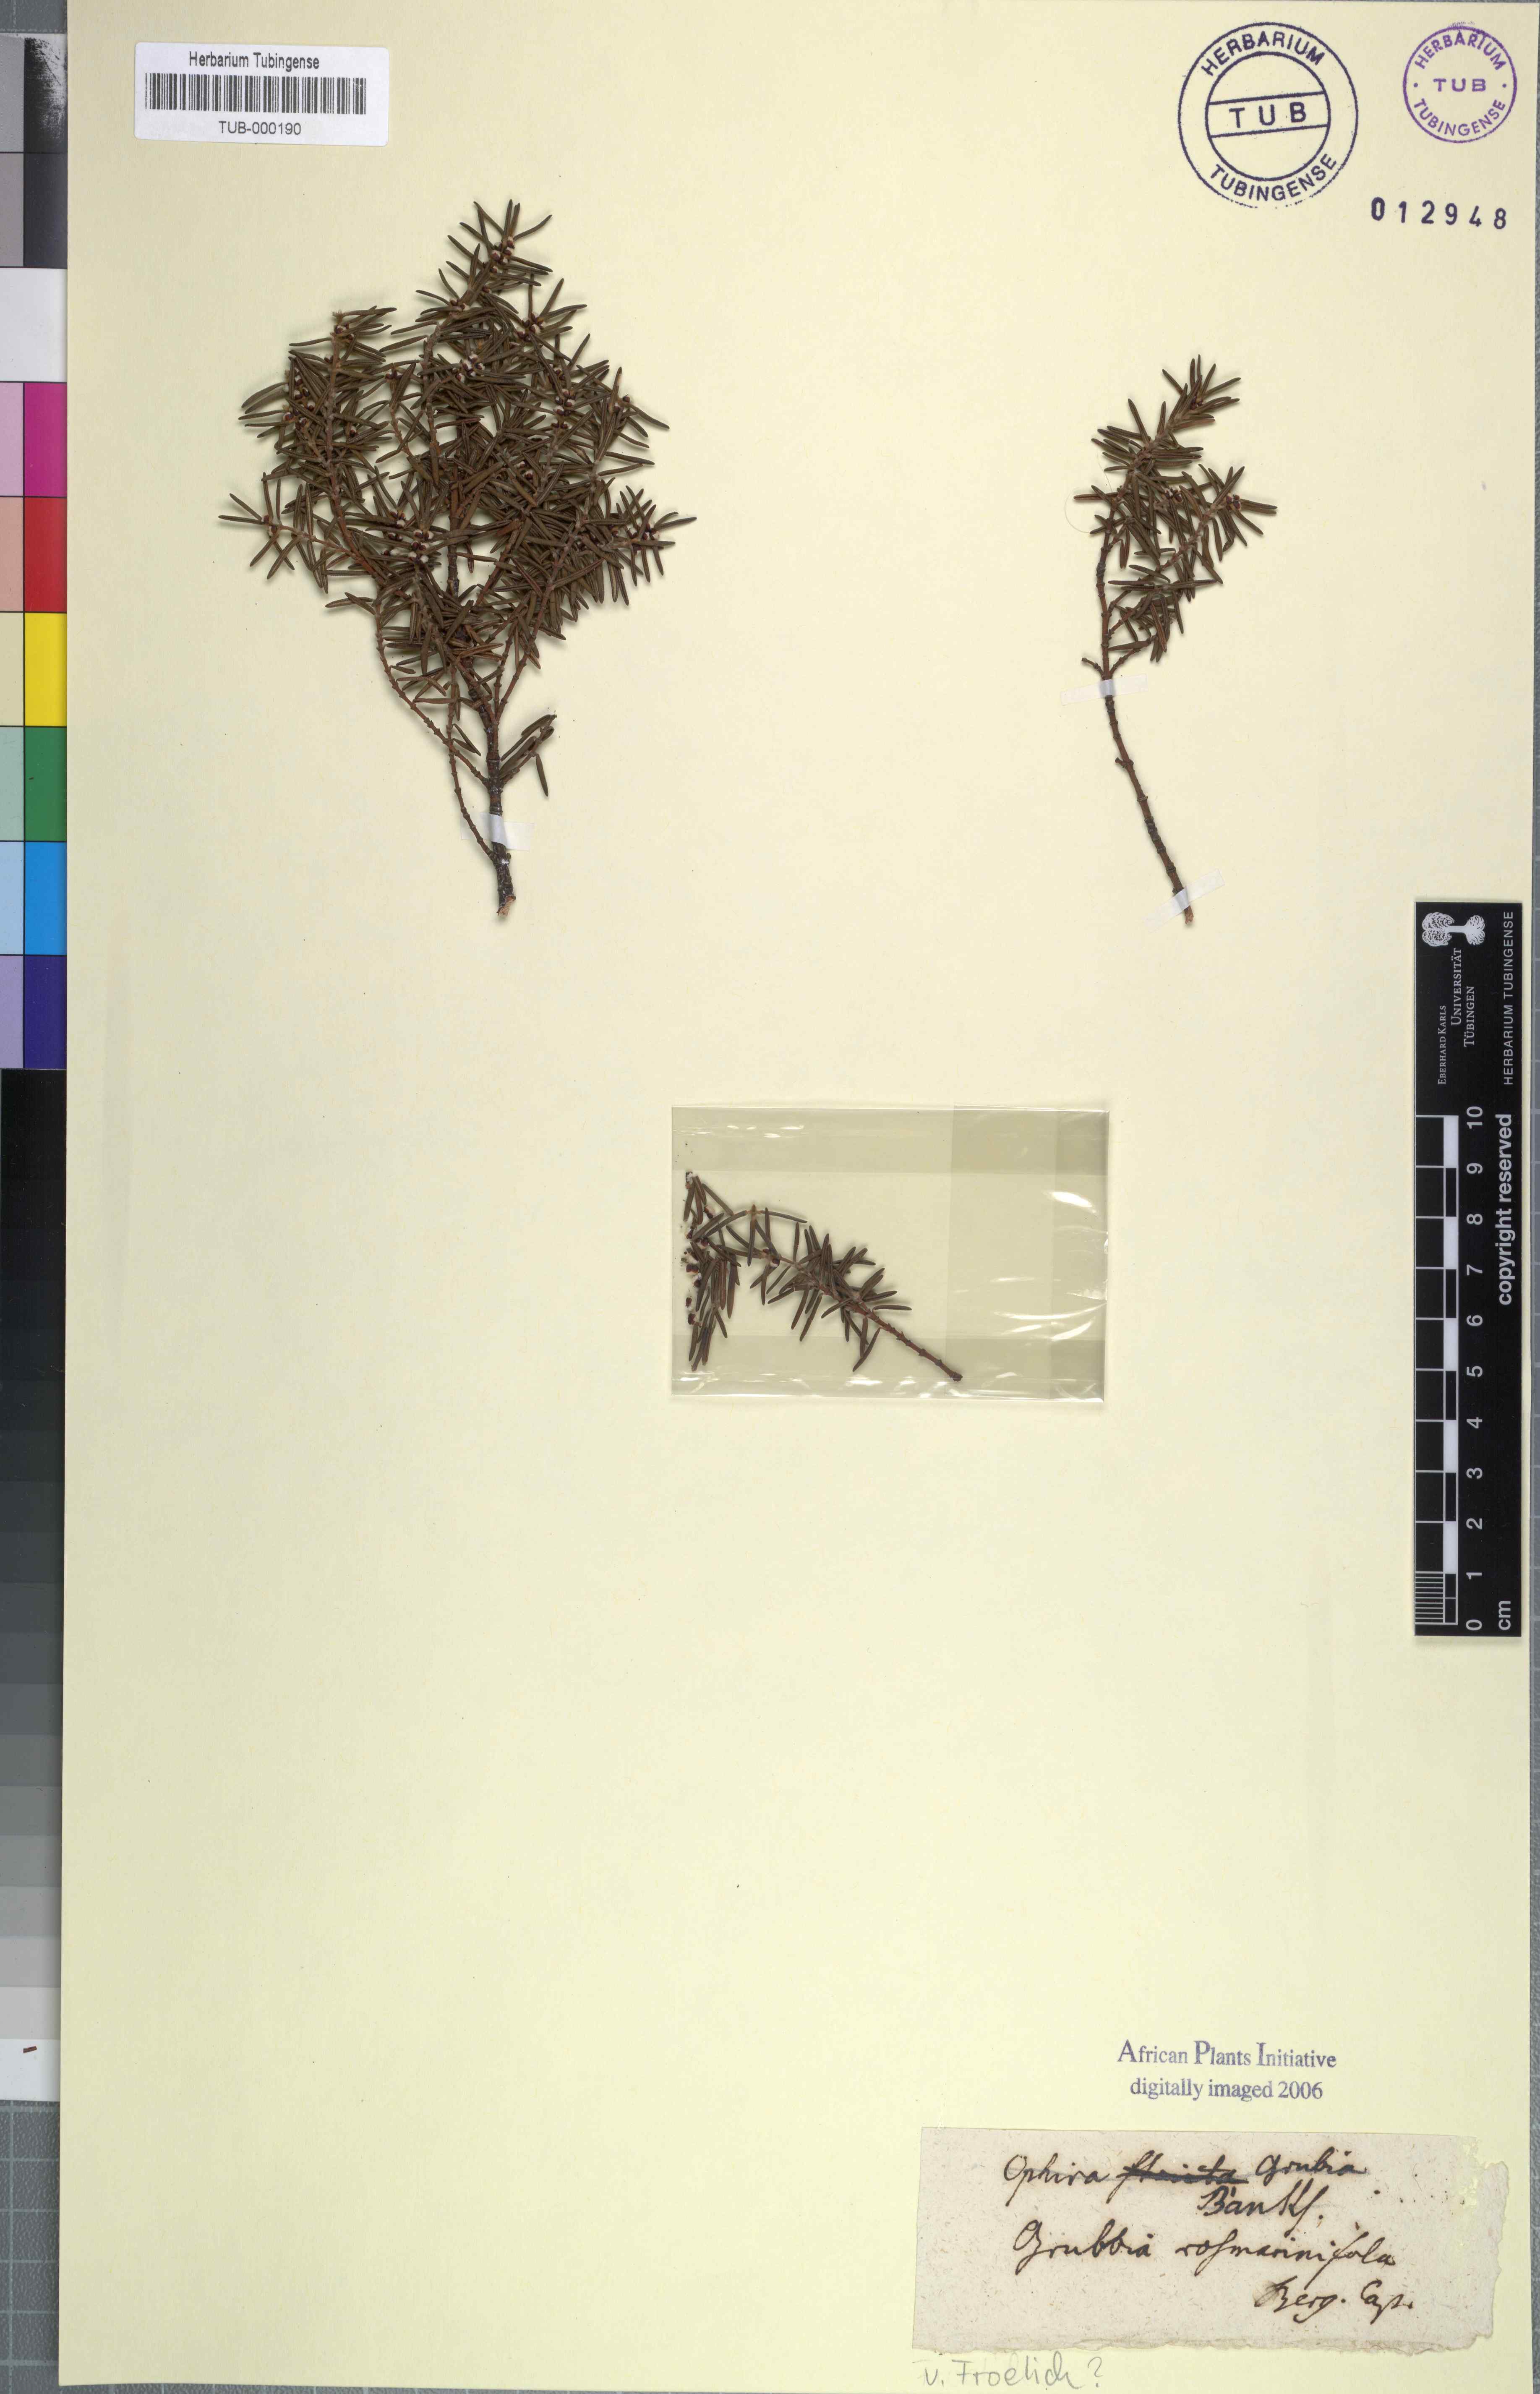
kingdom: Plantae
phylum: Tracheophyta
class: Magnoliopsida
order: Cornales
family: Grubbiaceae
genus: Grubbia
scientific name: Grubbia rosmarinifolia
